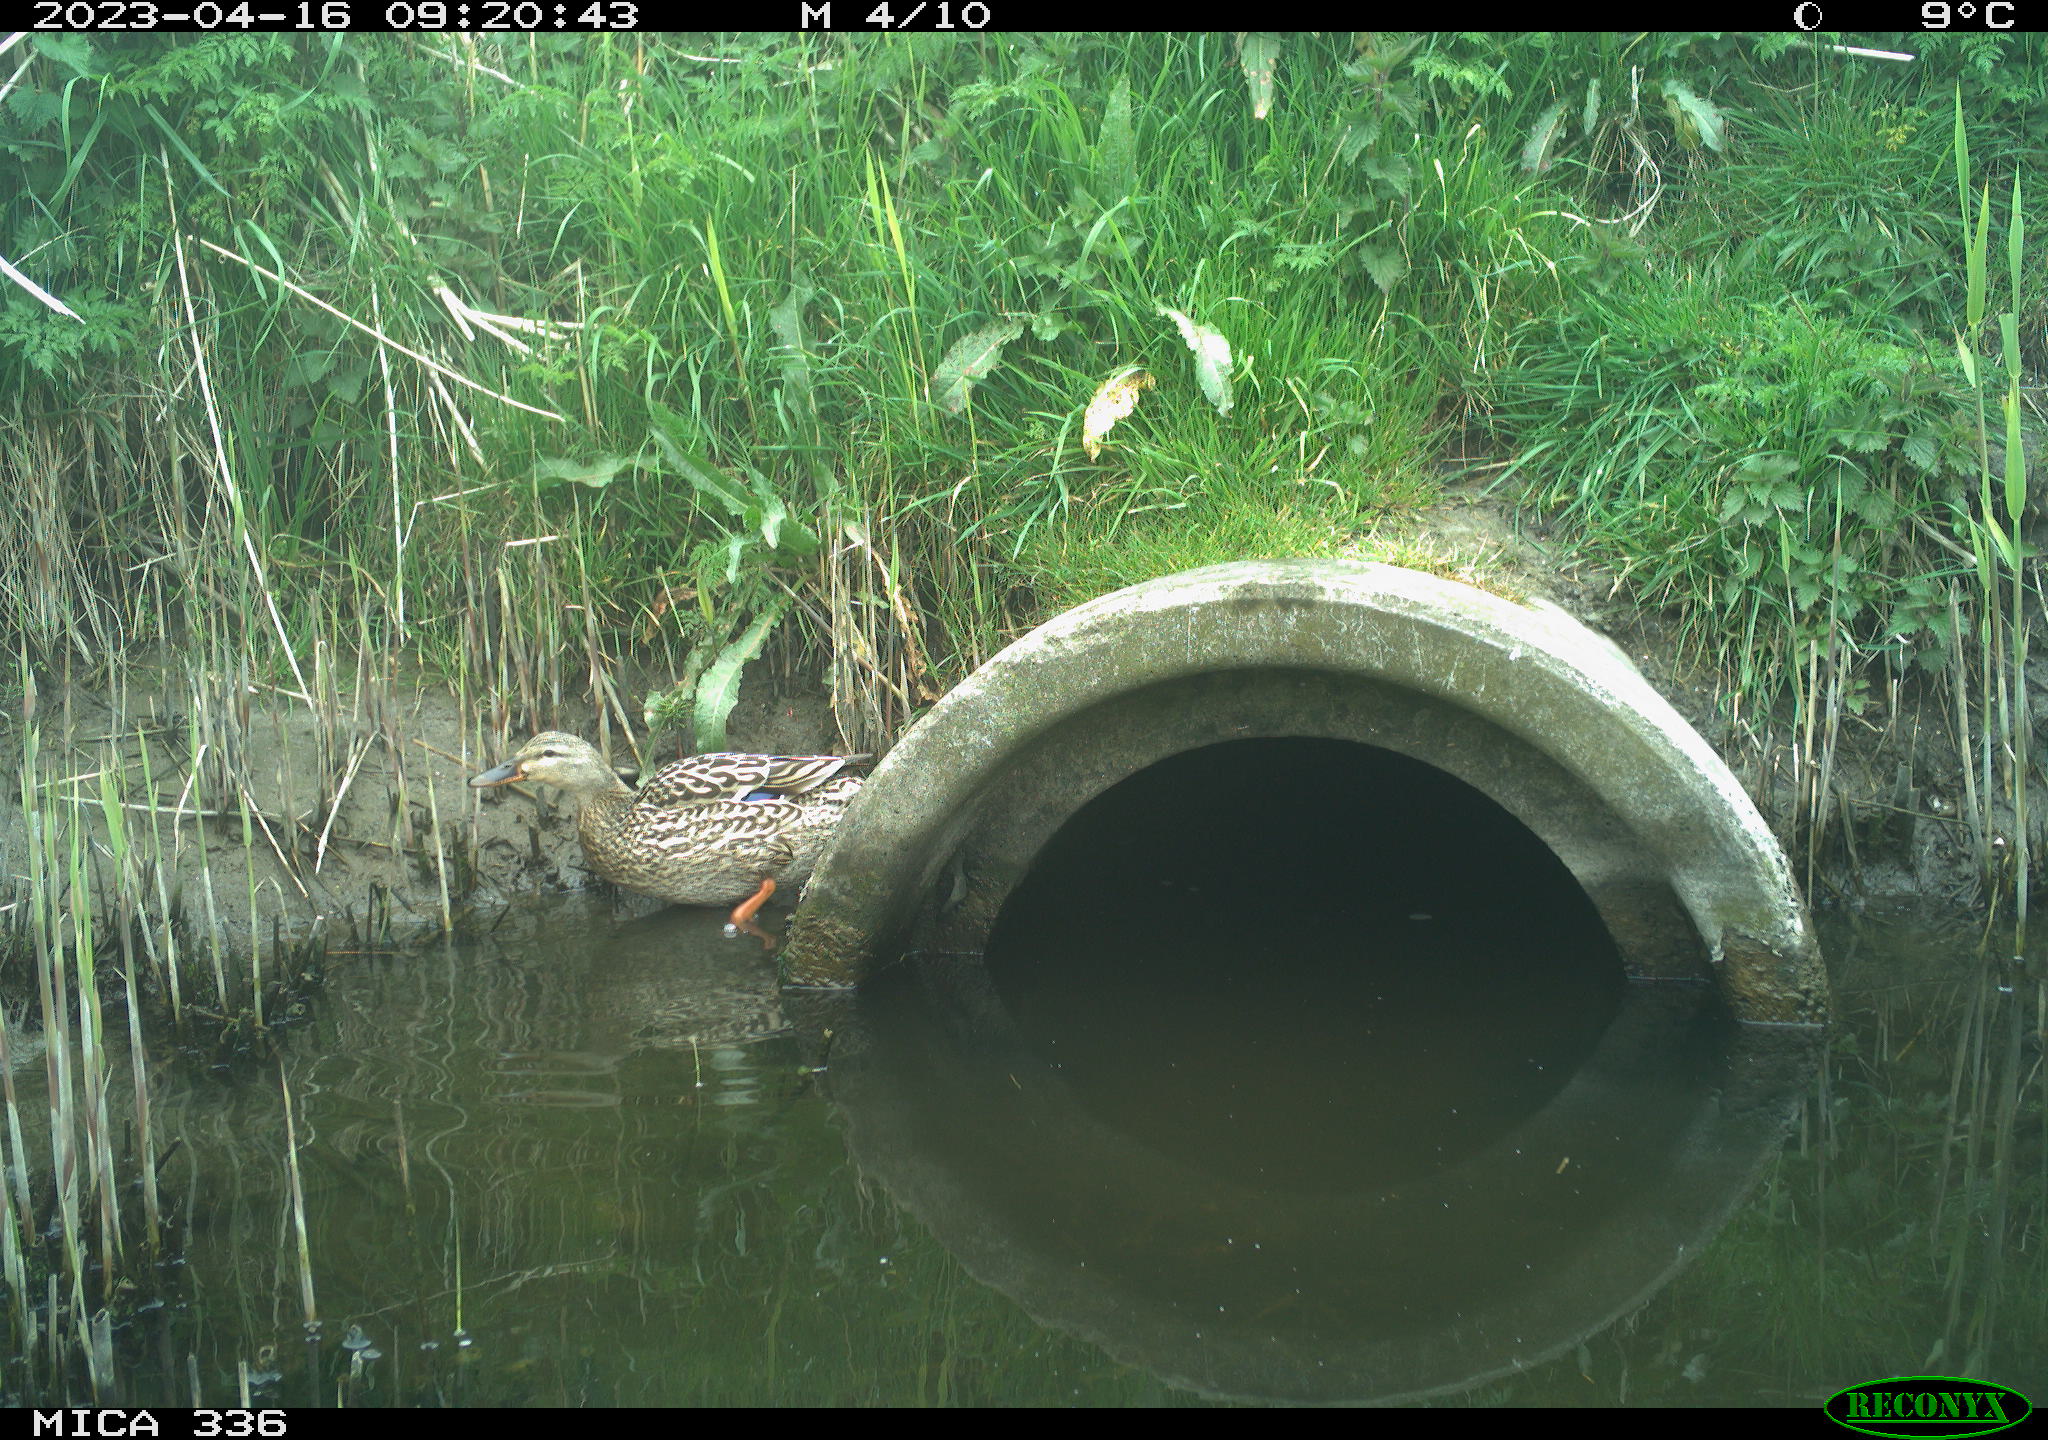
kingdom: Animalia
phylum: Chordata
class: Aves
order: Anseriformes
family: Anatidae
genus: Anas
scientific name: Anas
